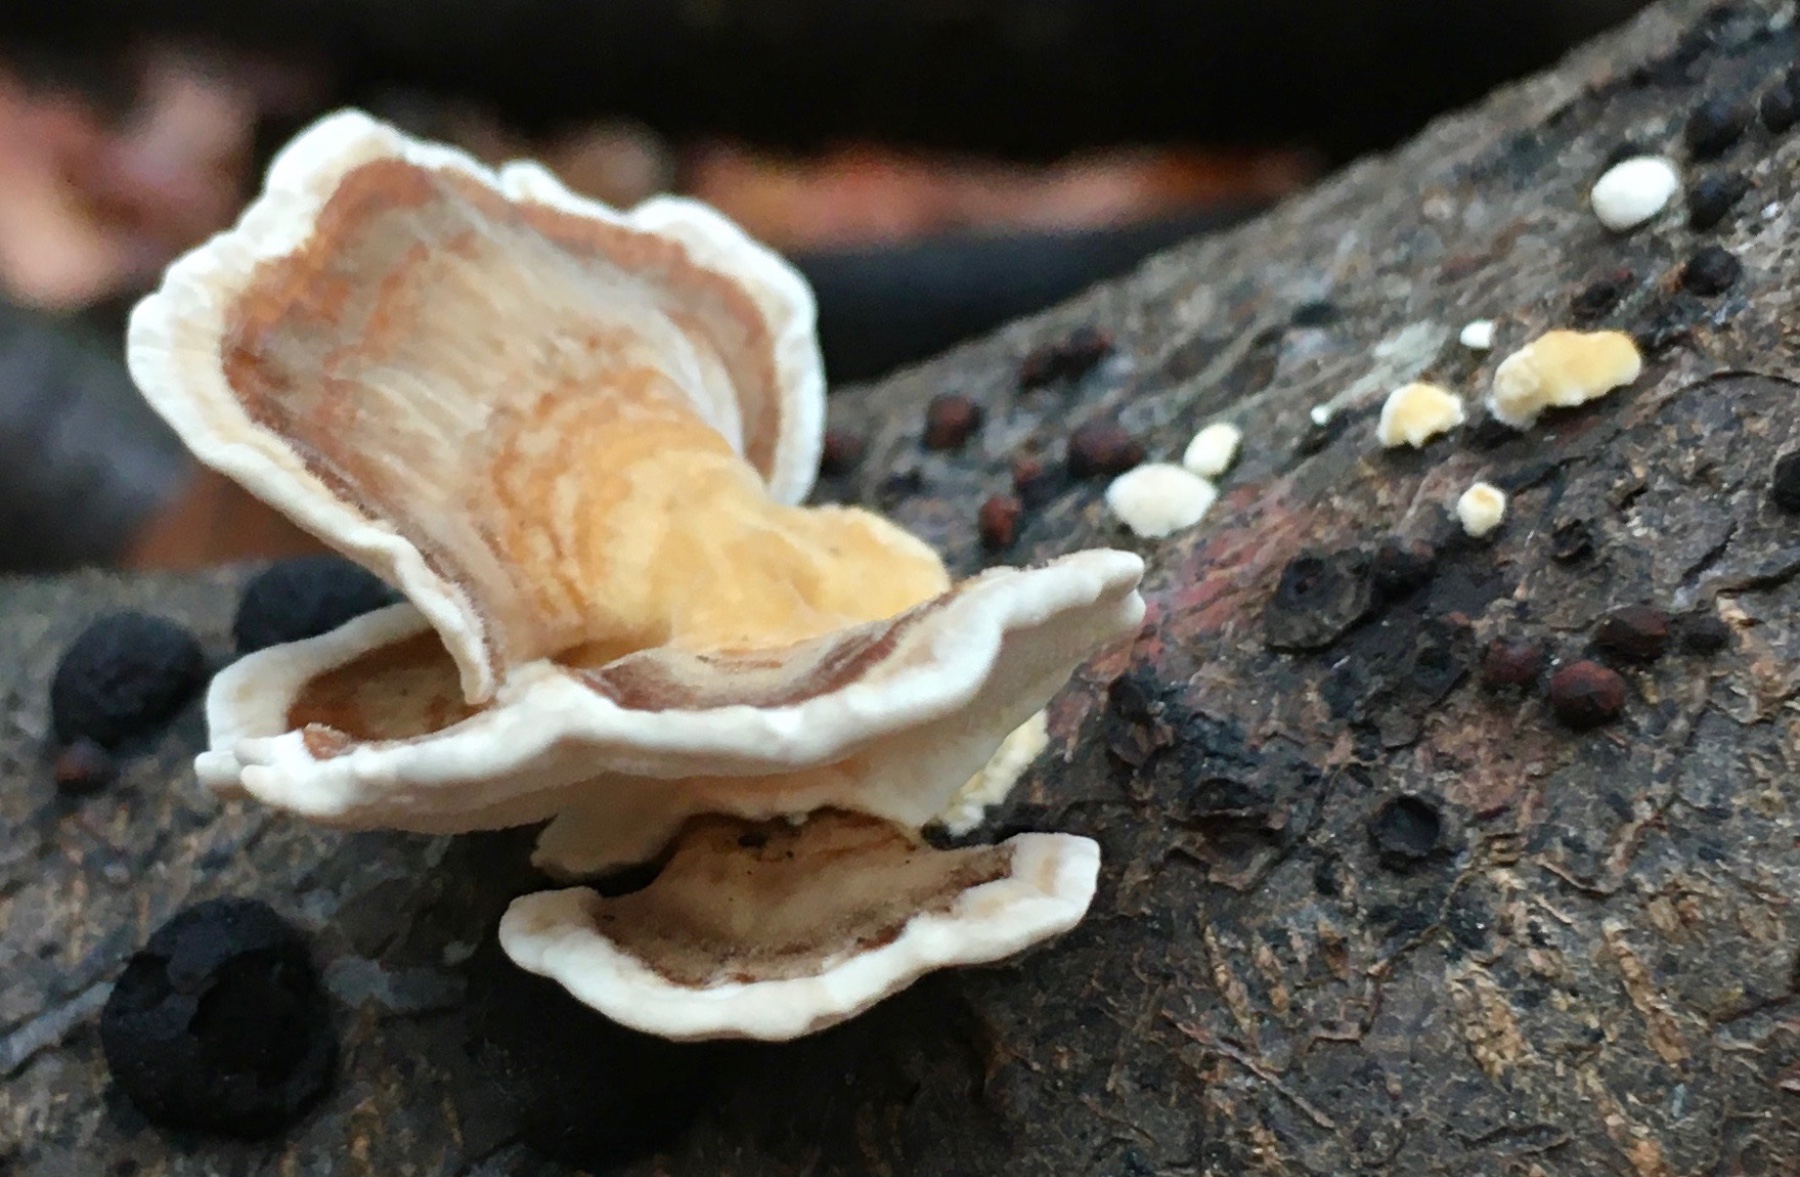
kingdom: Fungi
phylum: Basidiomycota
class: Agaricomycetes
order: Polyporales
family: Polyporaceae
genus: Trametes
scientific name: Trametes versicolor
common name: broget læderporesvamp
